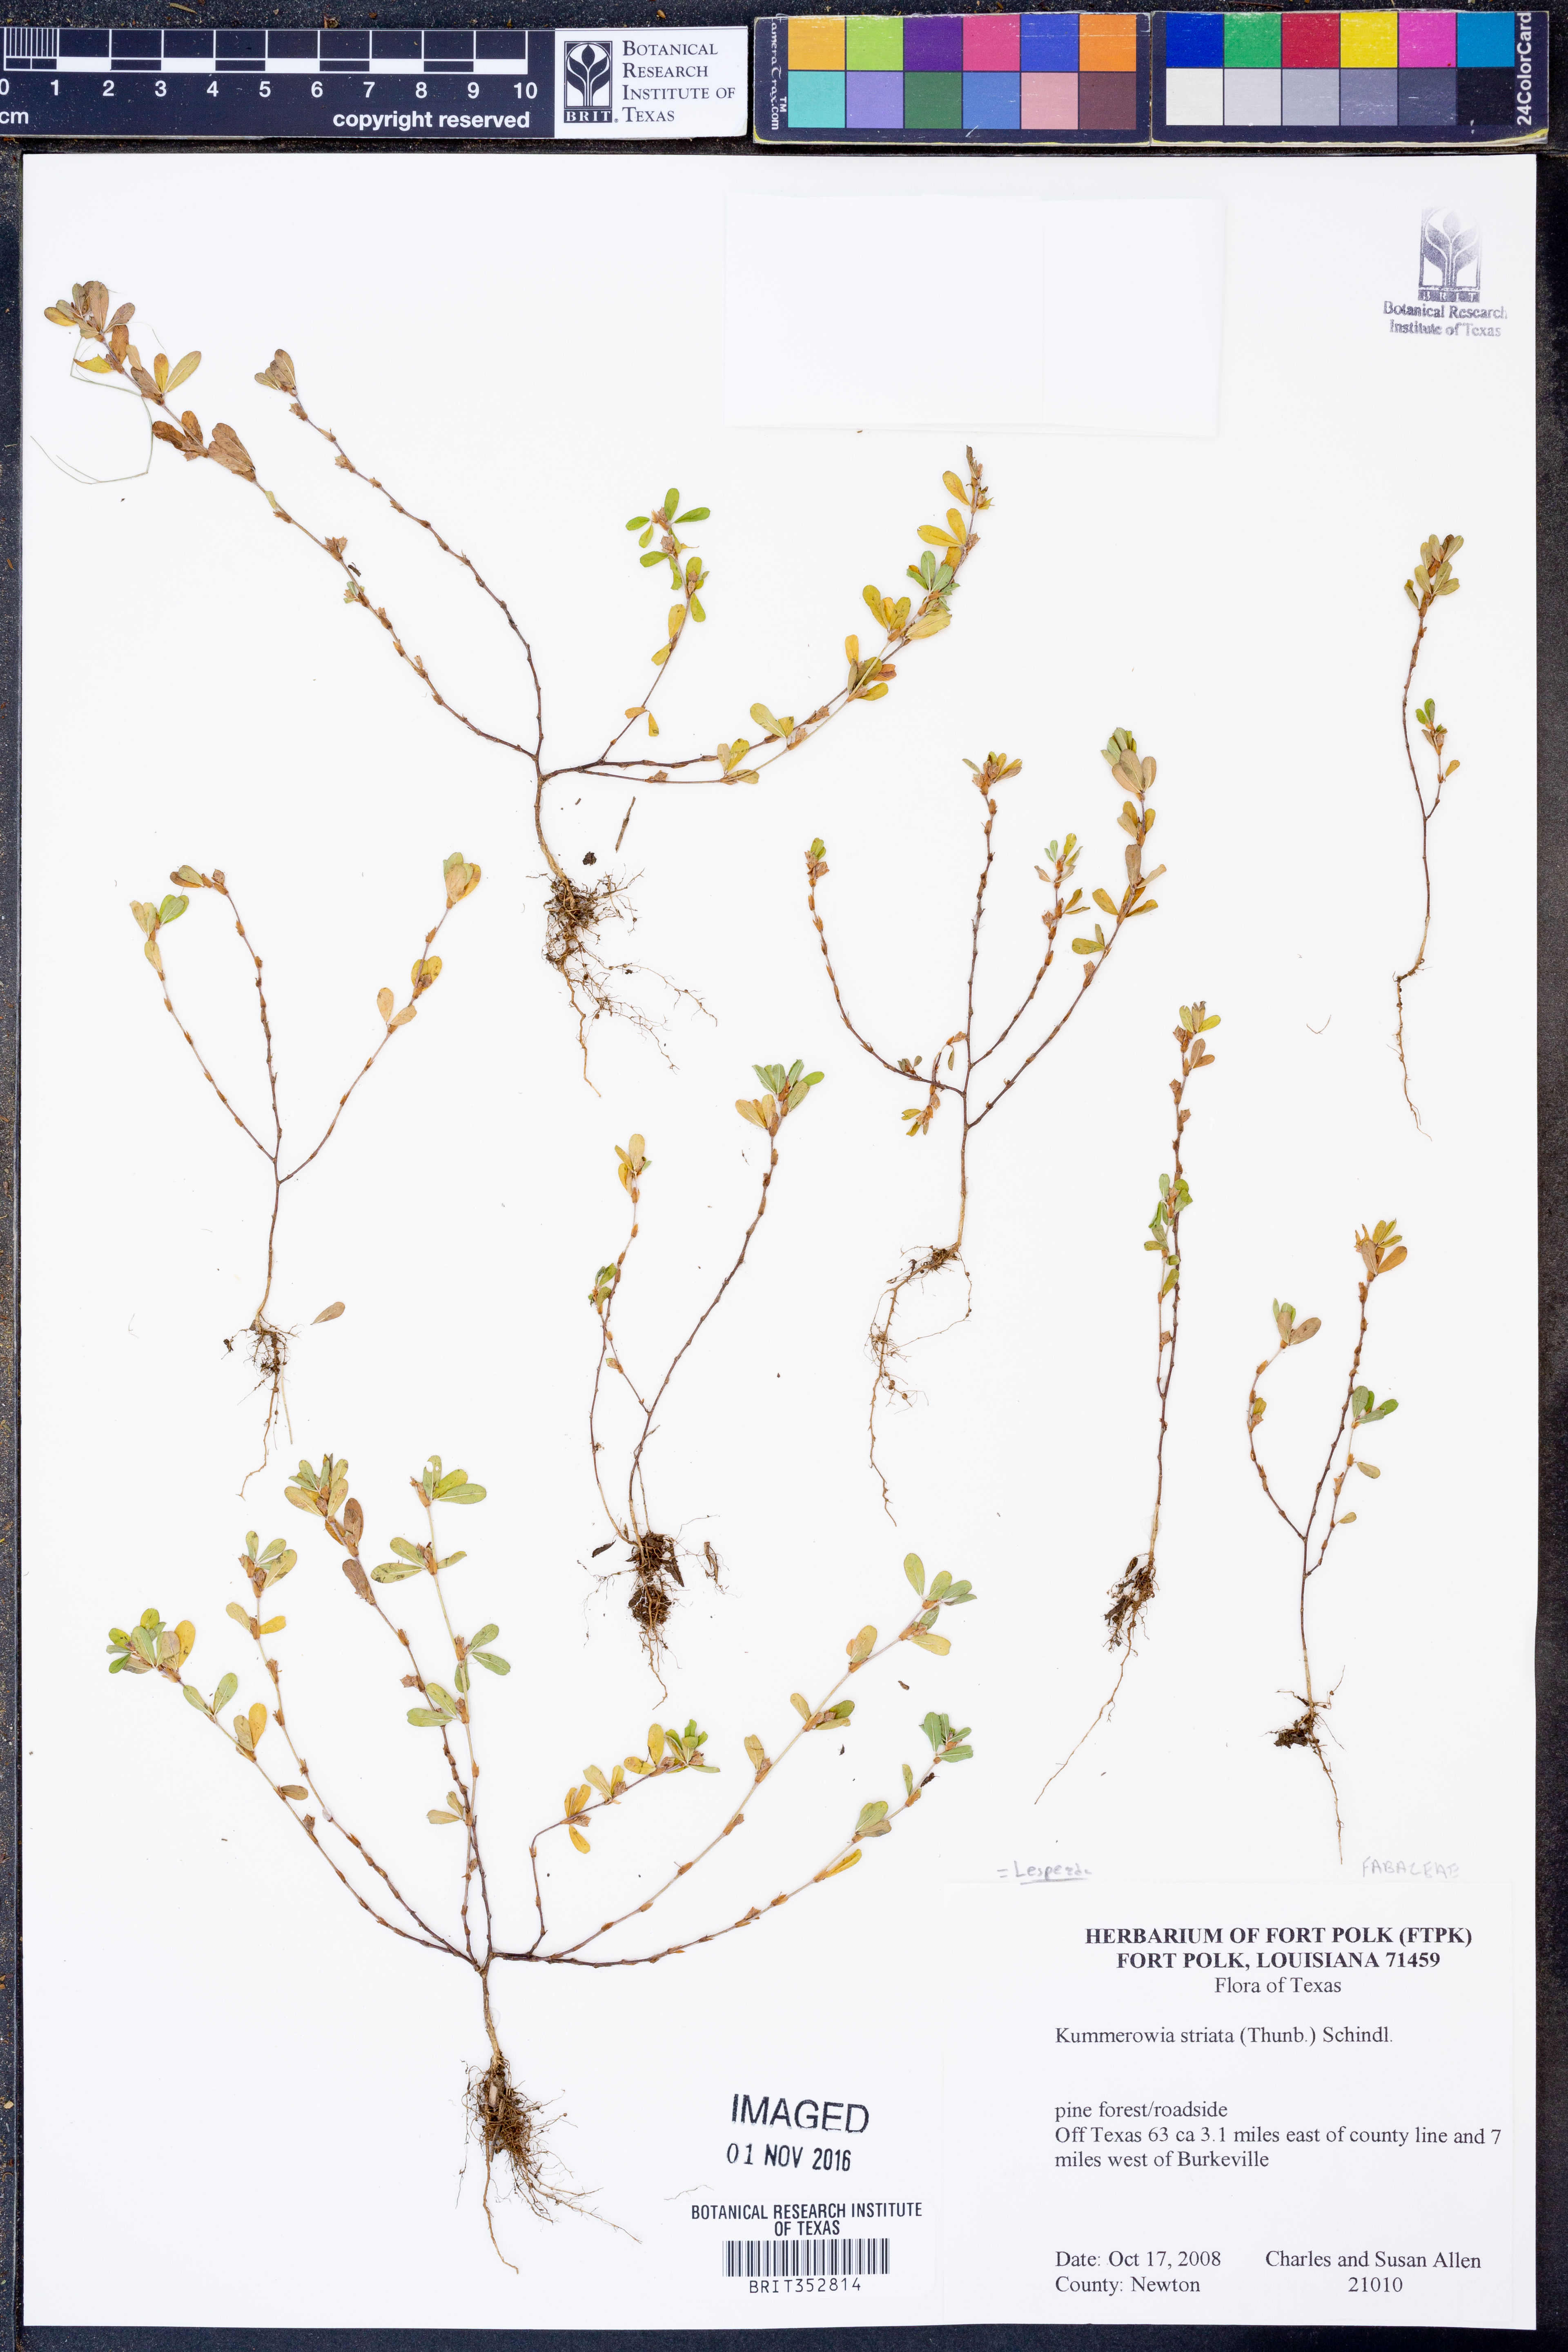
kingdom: Plantae
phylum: Tracheophyta
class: Magnoliopsida
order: Fabales
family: Fabaceae
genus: Kummerowia
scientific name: Kummerowia striata
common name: Japanese clover
